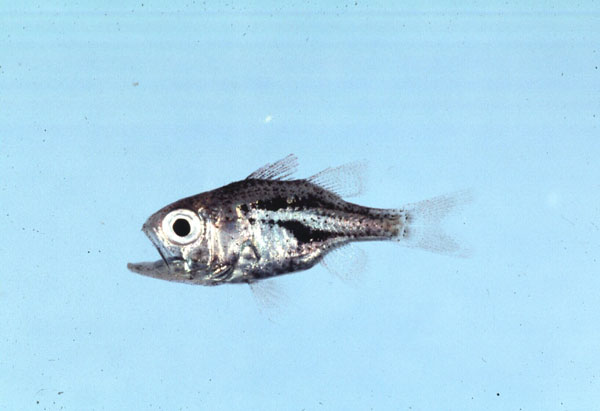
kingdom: Animalia
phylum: Chordata
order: Perciformes
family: Apogonidae
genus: Siphamia
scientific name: Siphamia
